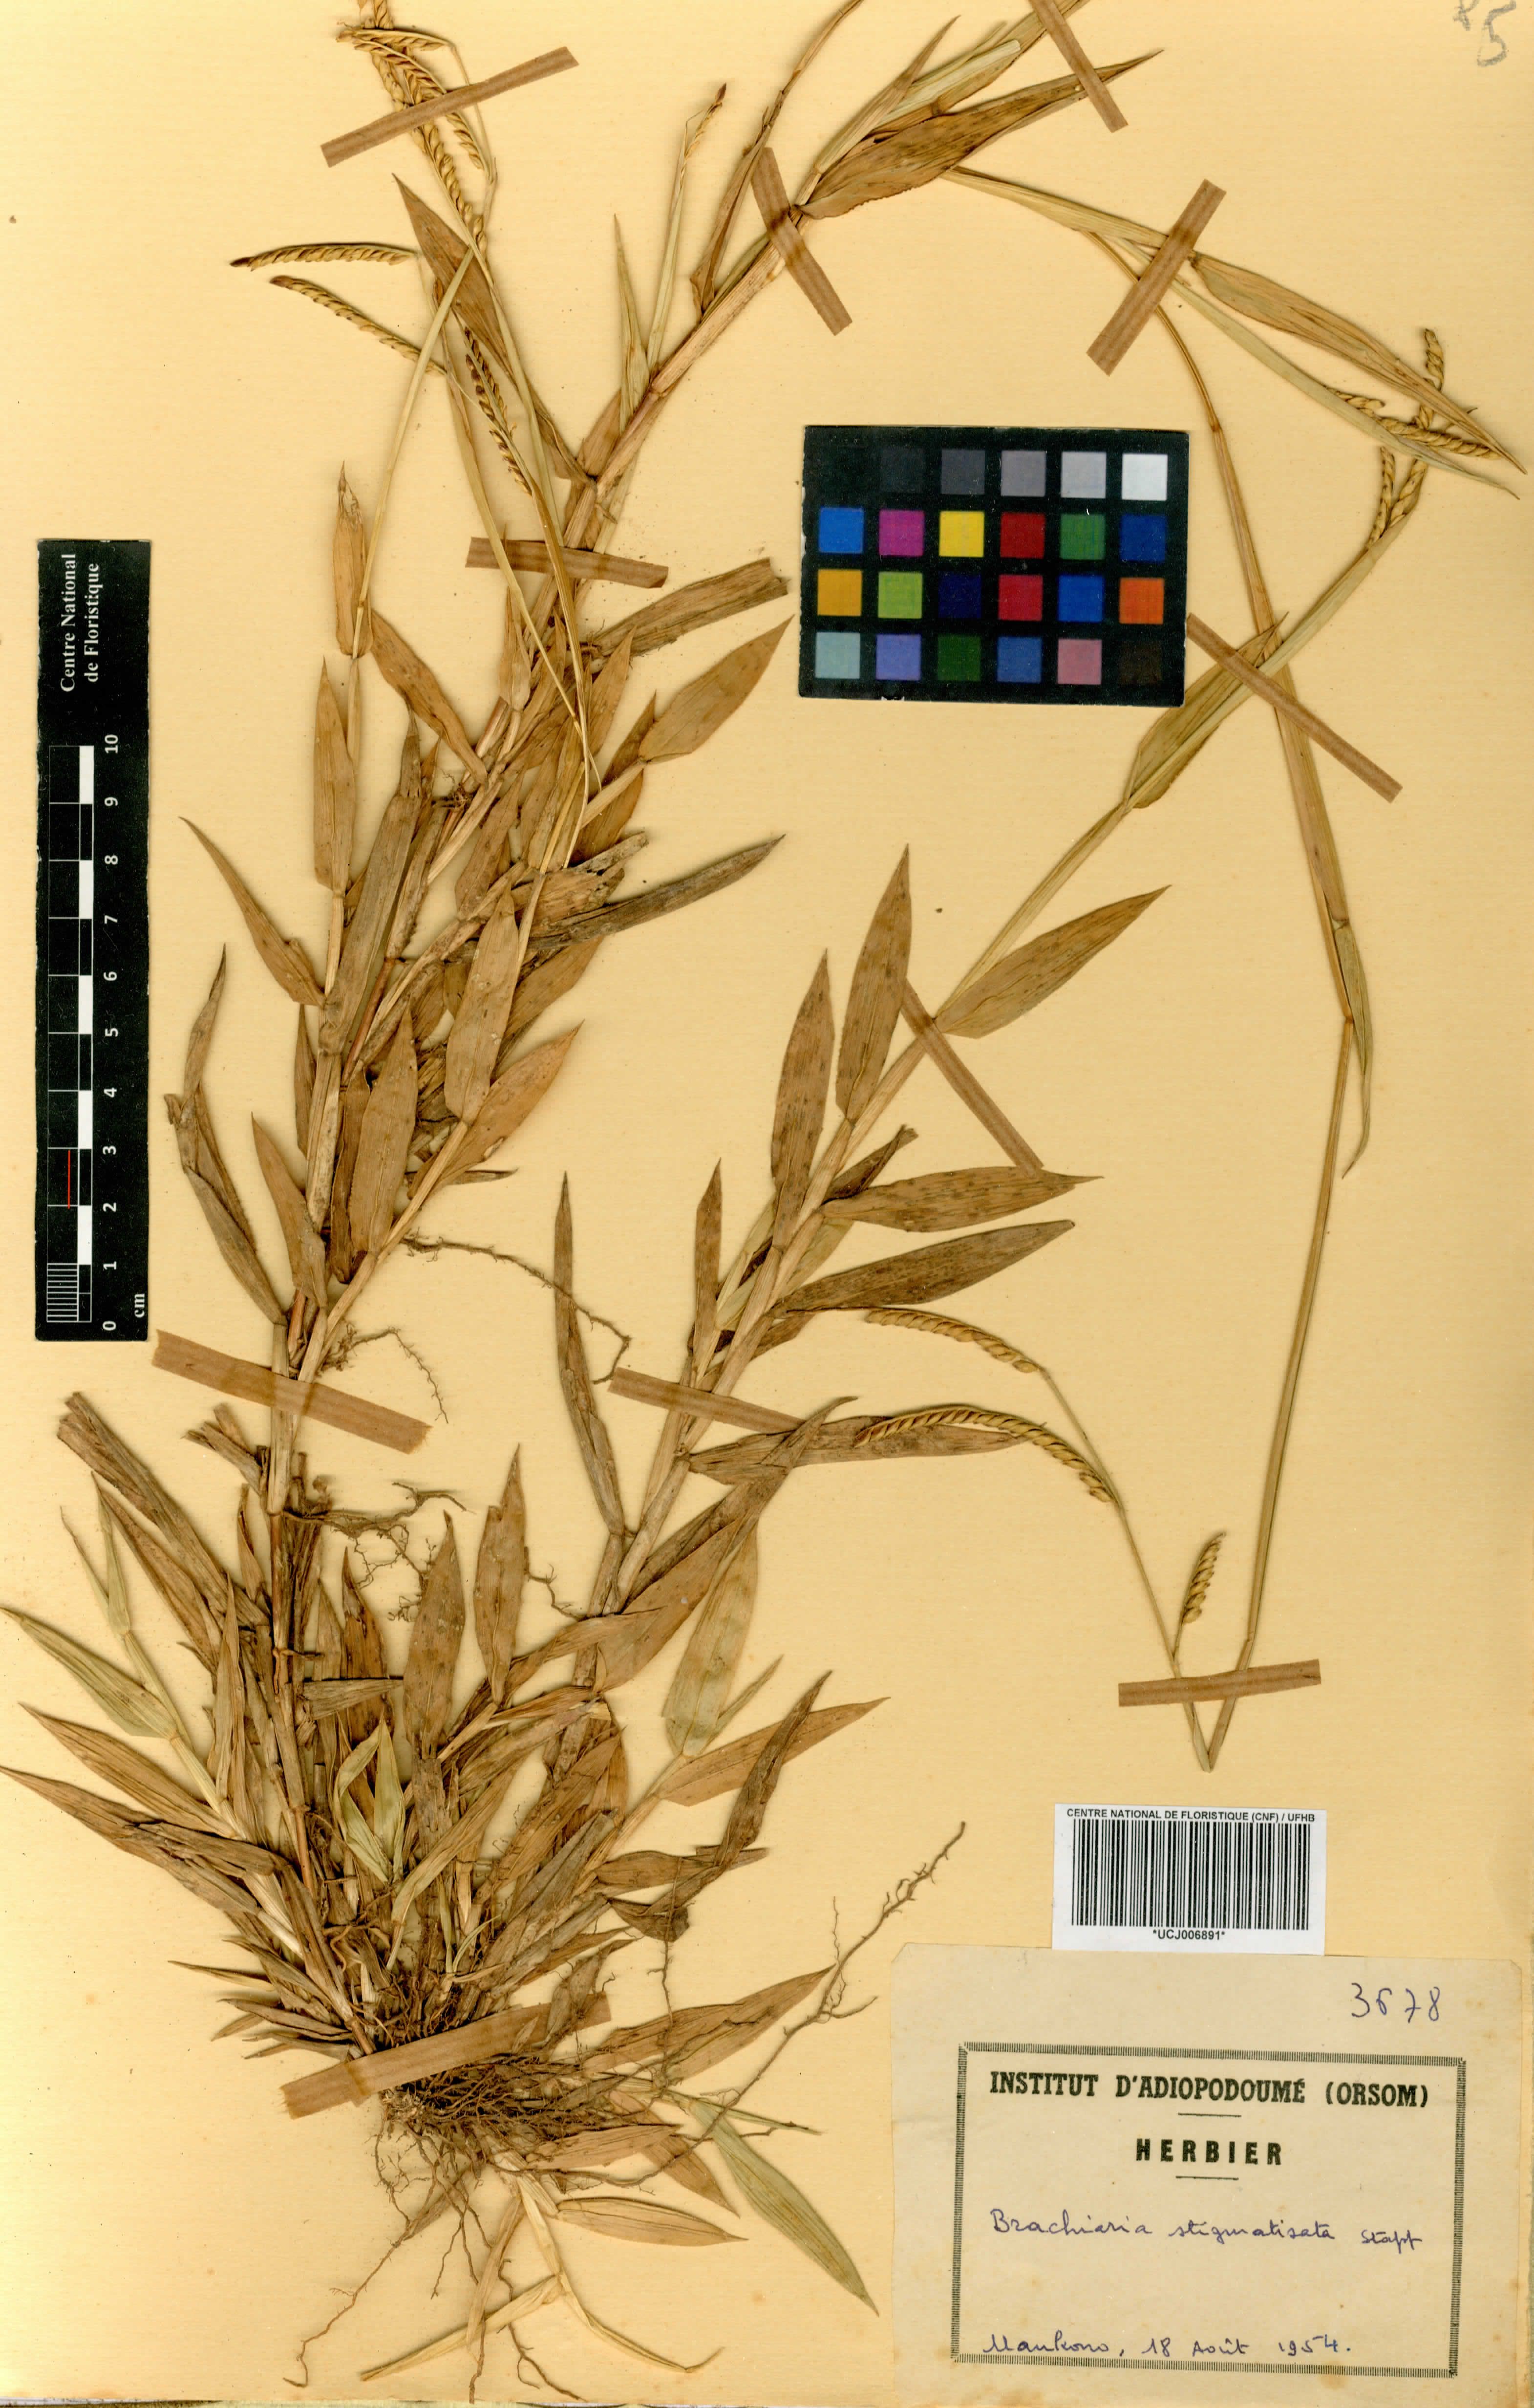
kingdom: Plantae
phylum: Tracheophyta
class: Liliopsida
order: Poales
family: Poaceae
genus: Urochloa
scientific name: Urochloa stigmatisata
